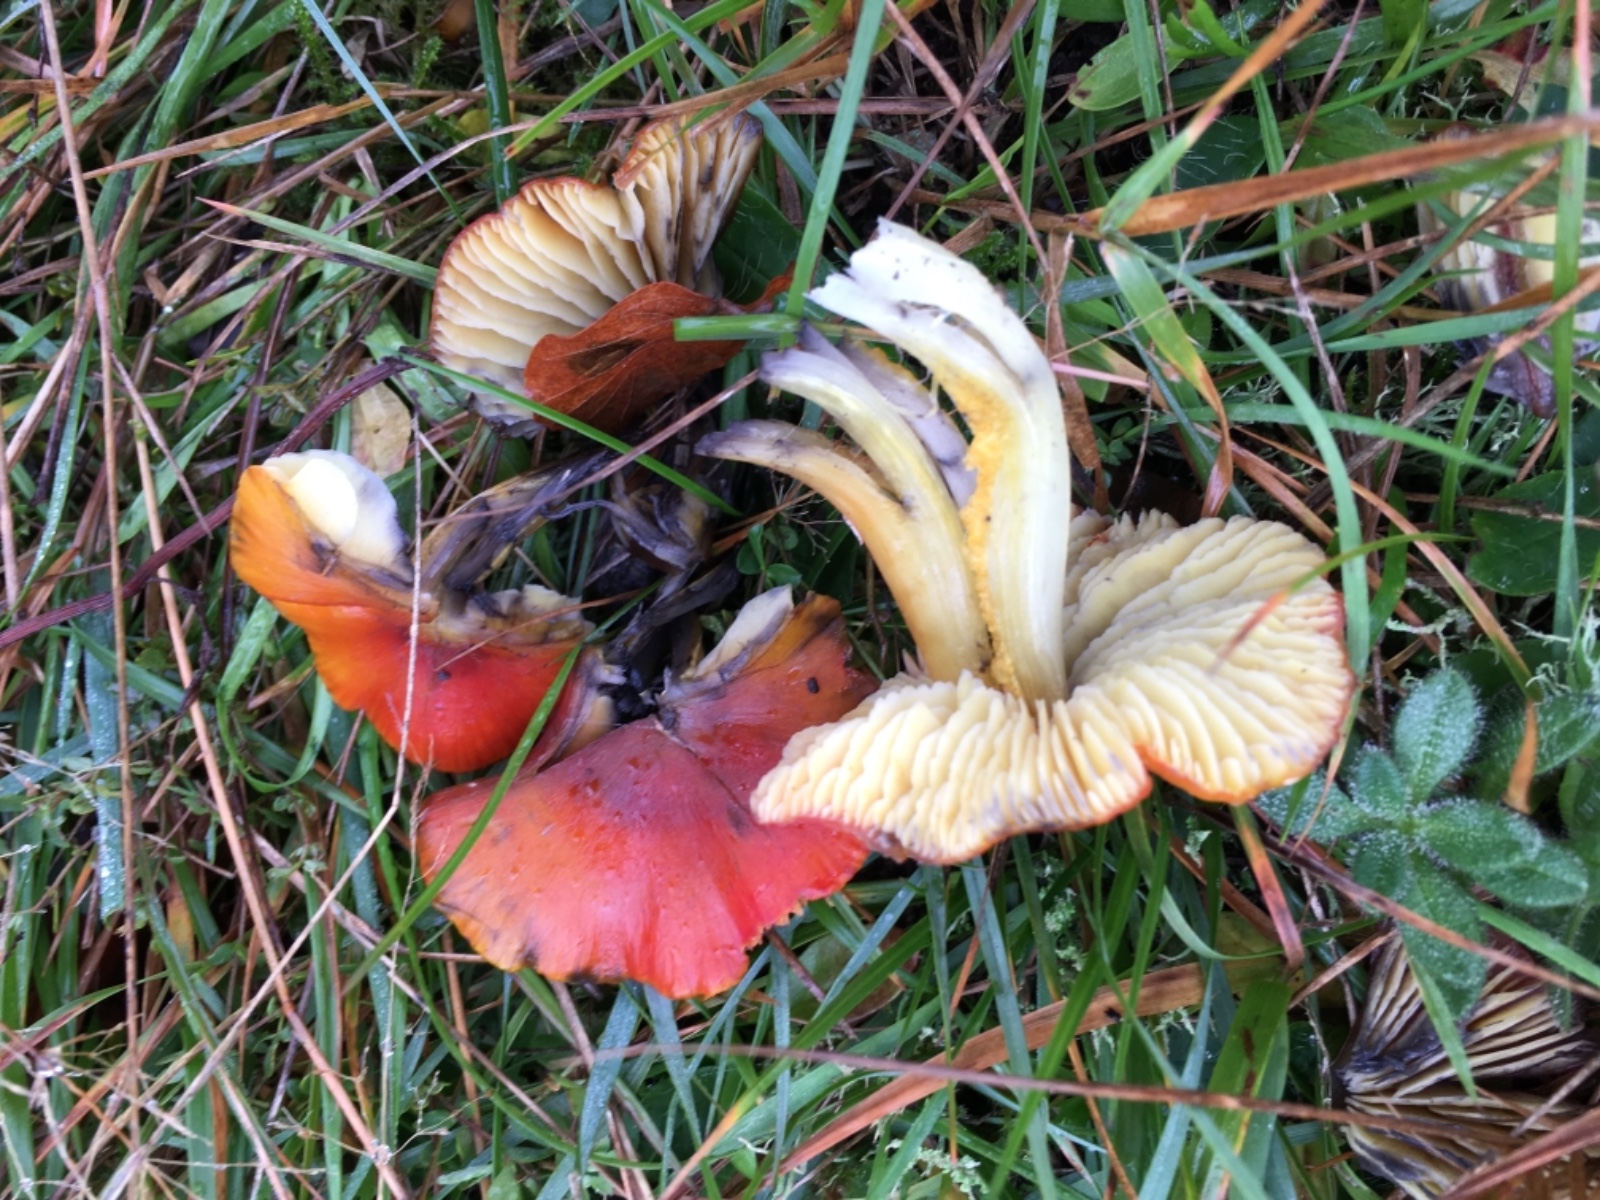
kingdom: Fungi
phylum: Basidiomycota
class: Agaricomycetes
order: Agaricales
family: Hygrophoraceae
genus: Hygrocybe
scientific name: Hygrocybe conica
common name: kegle-vokshat
